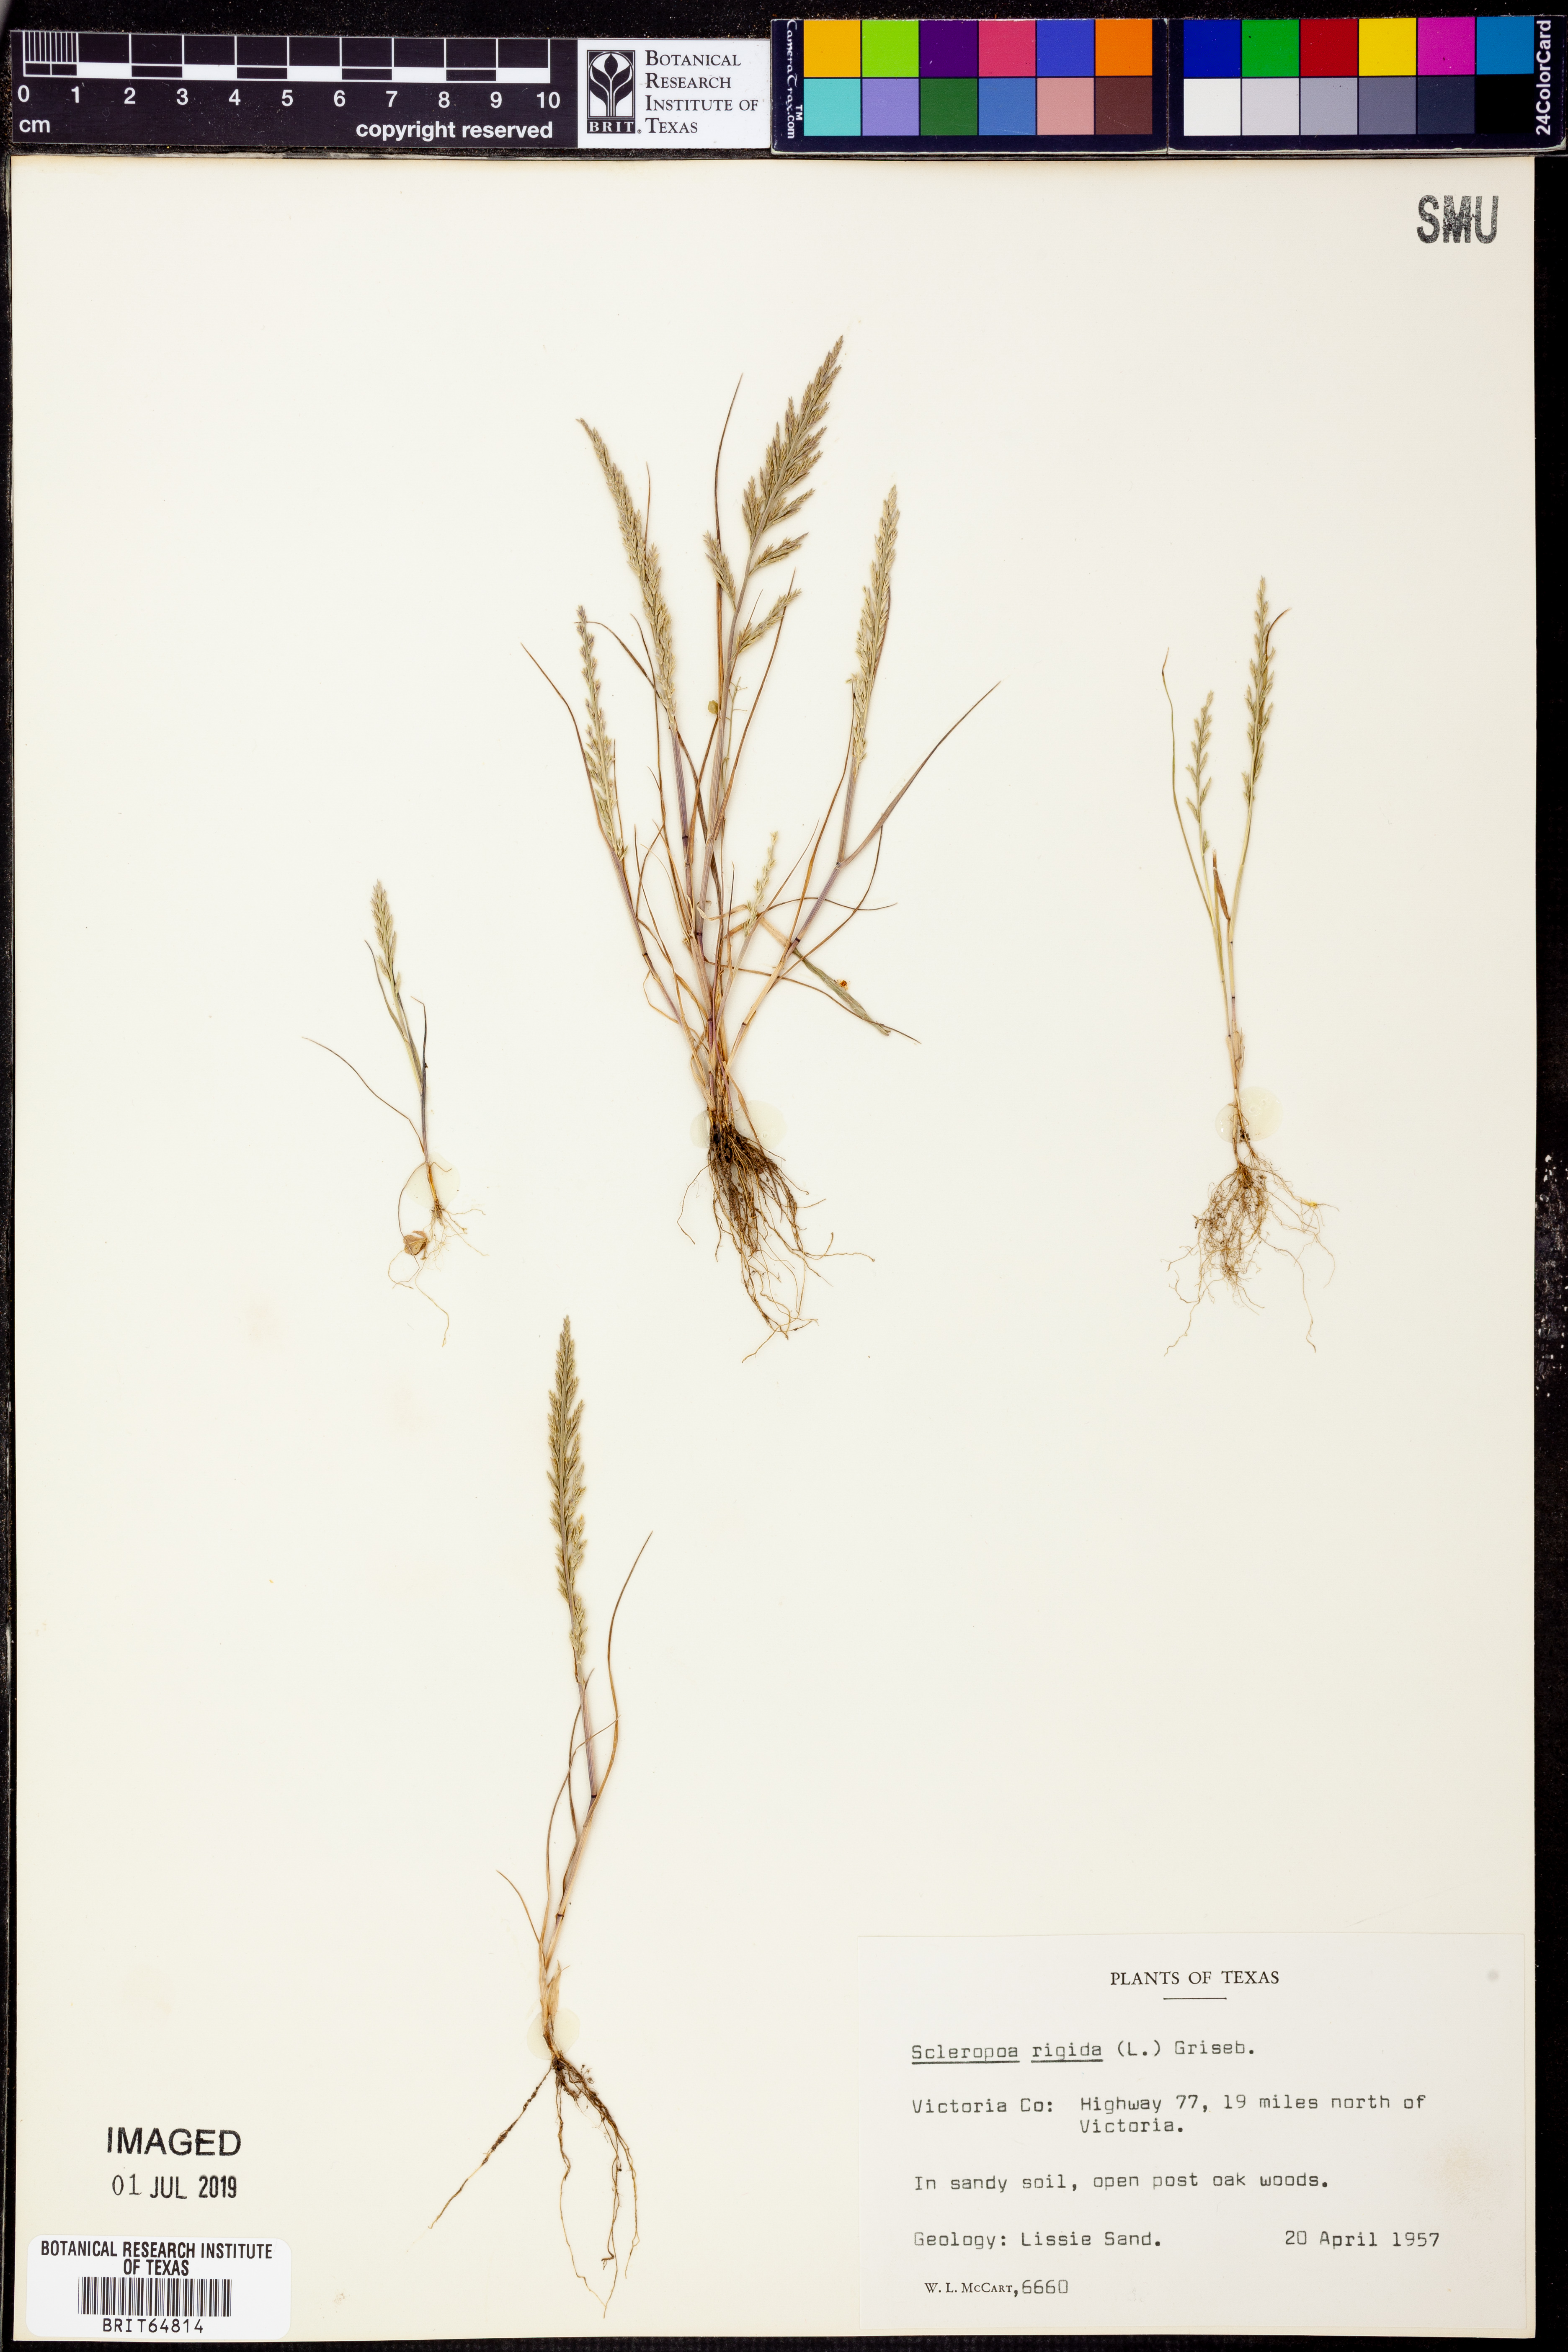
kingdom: Plantae
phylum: Tracheophyta
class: Liliopsida
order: Poales
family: Poaceae
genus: Catapodium
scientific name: Catapodium rigidum
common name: Fern-grass
